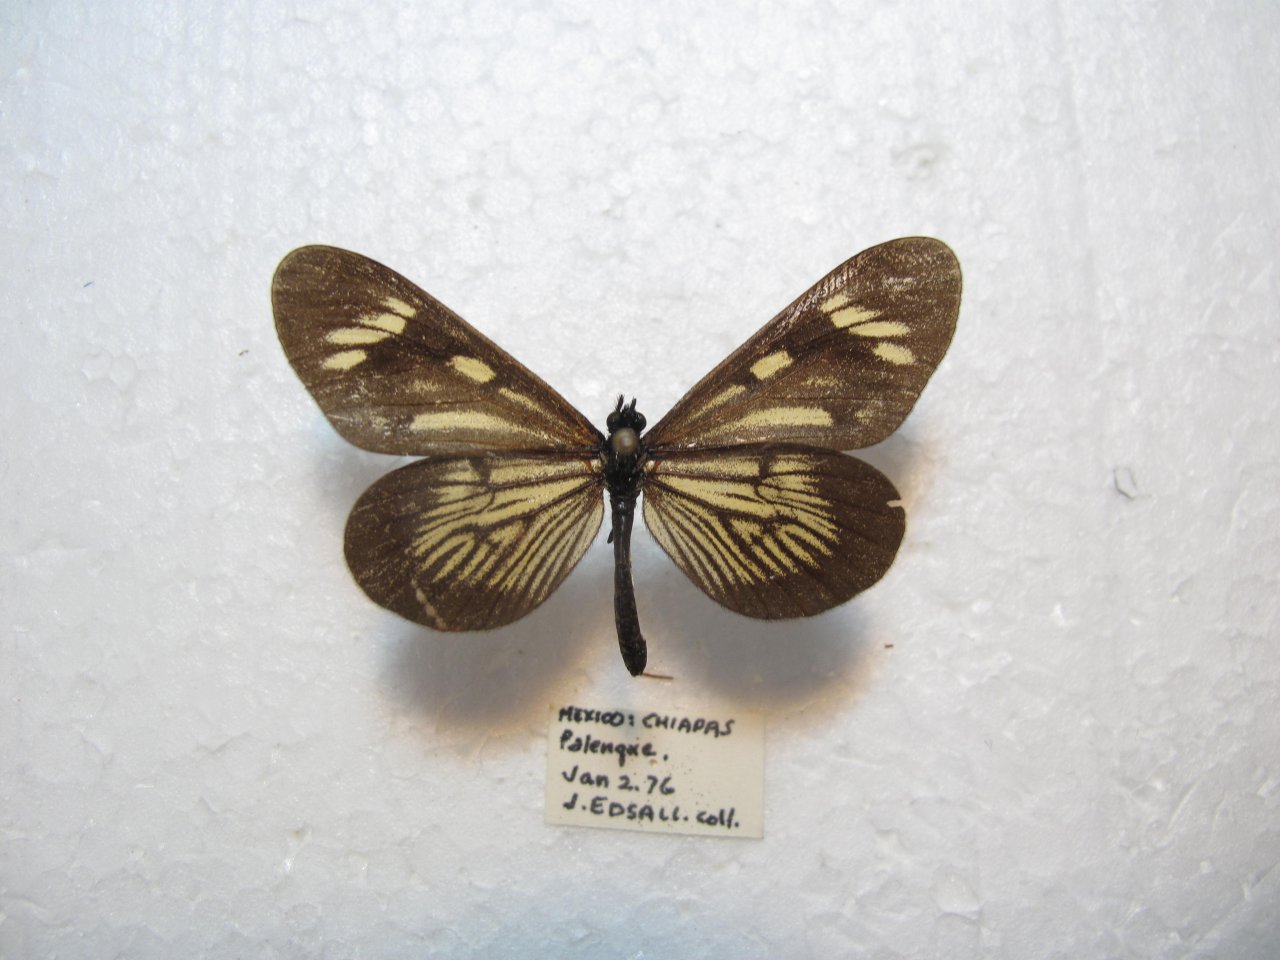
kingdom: Animalia
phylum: Arthropoda
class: Insecta
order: Lepidoptera
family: Nymphalidae
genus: Actinote
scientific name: Actinote guatemalena
